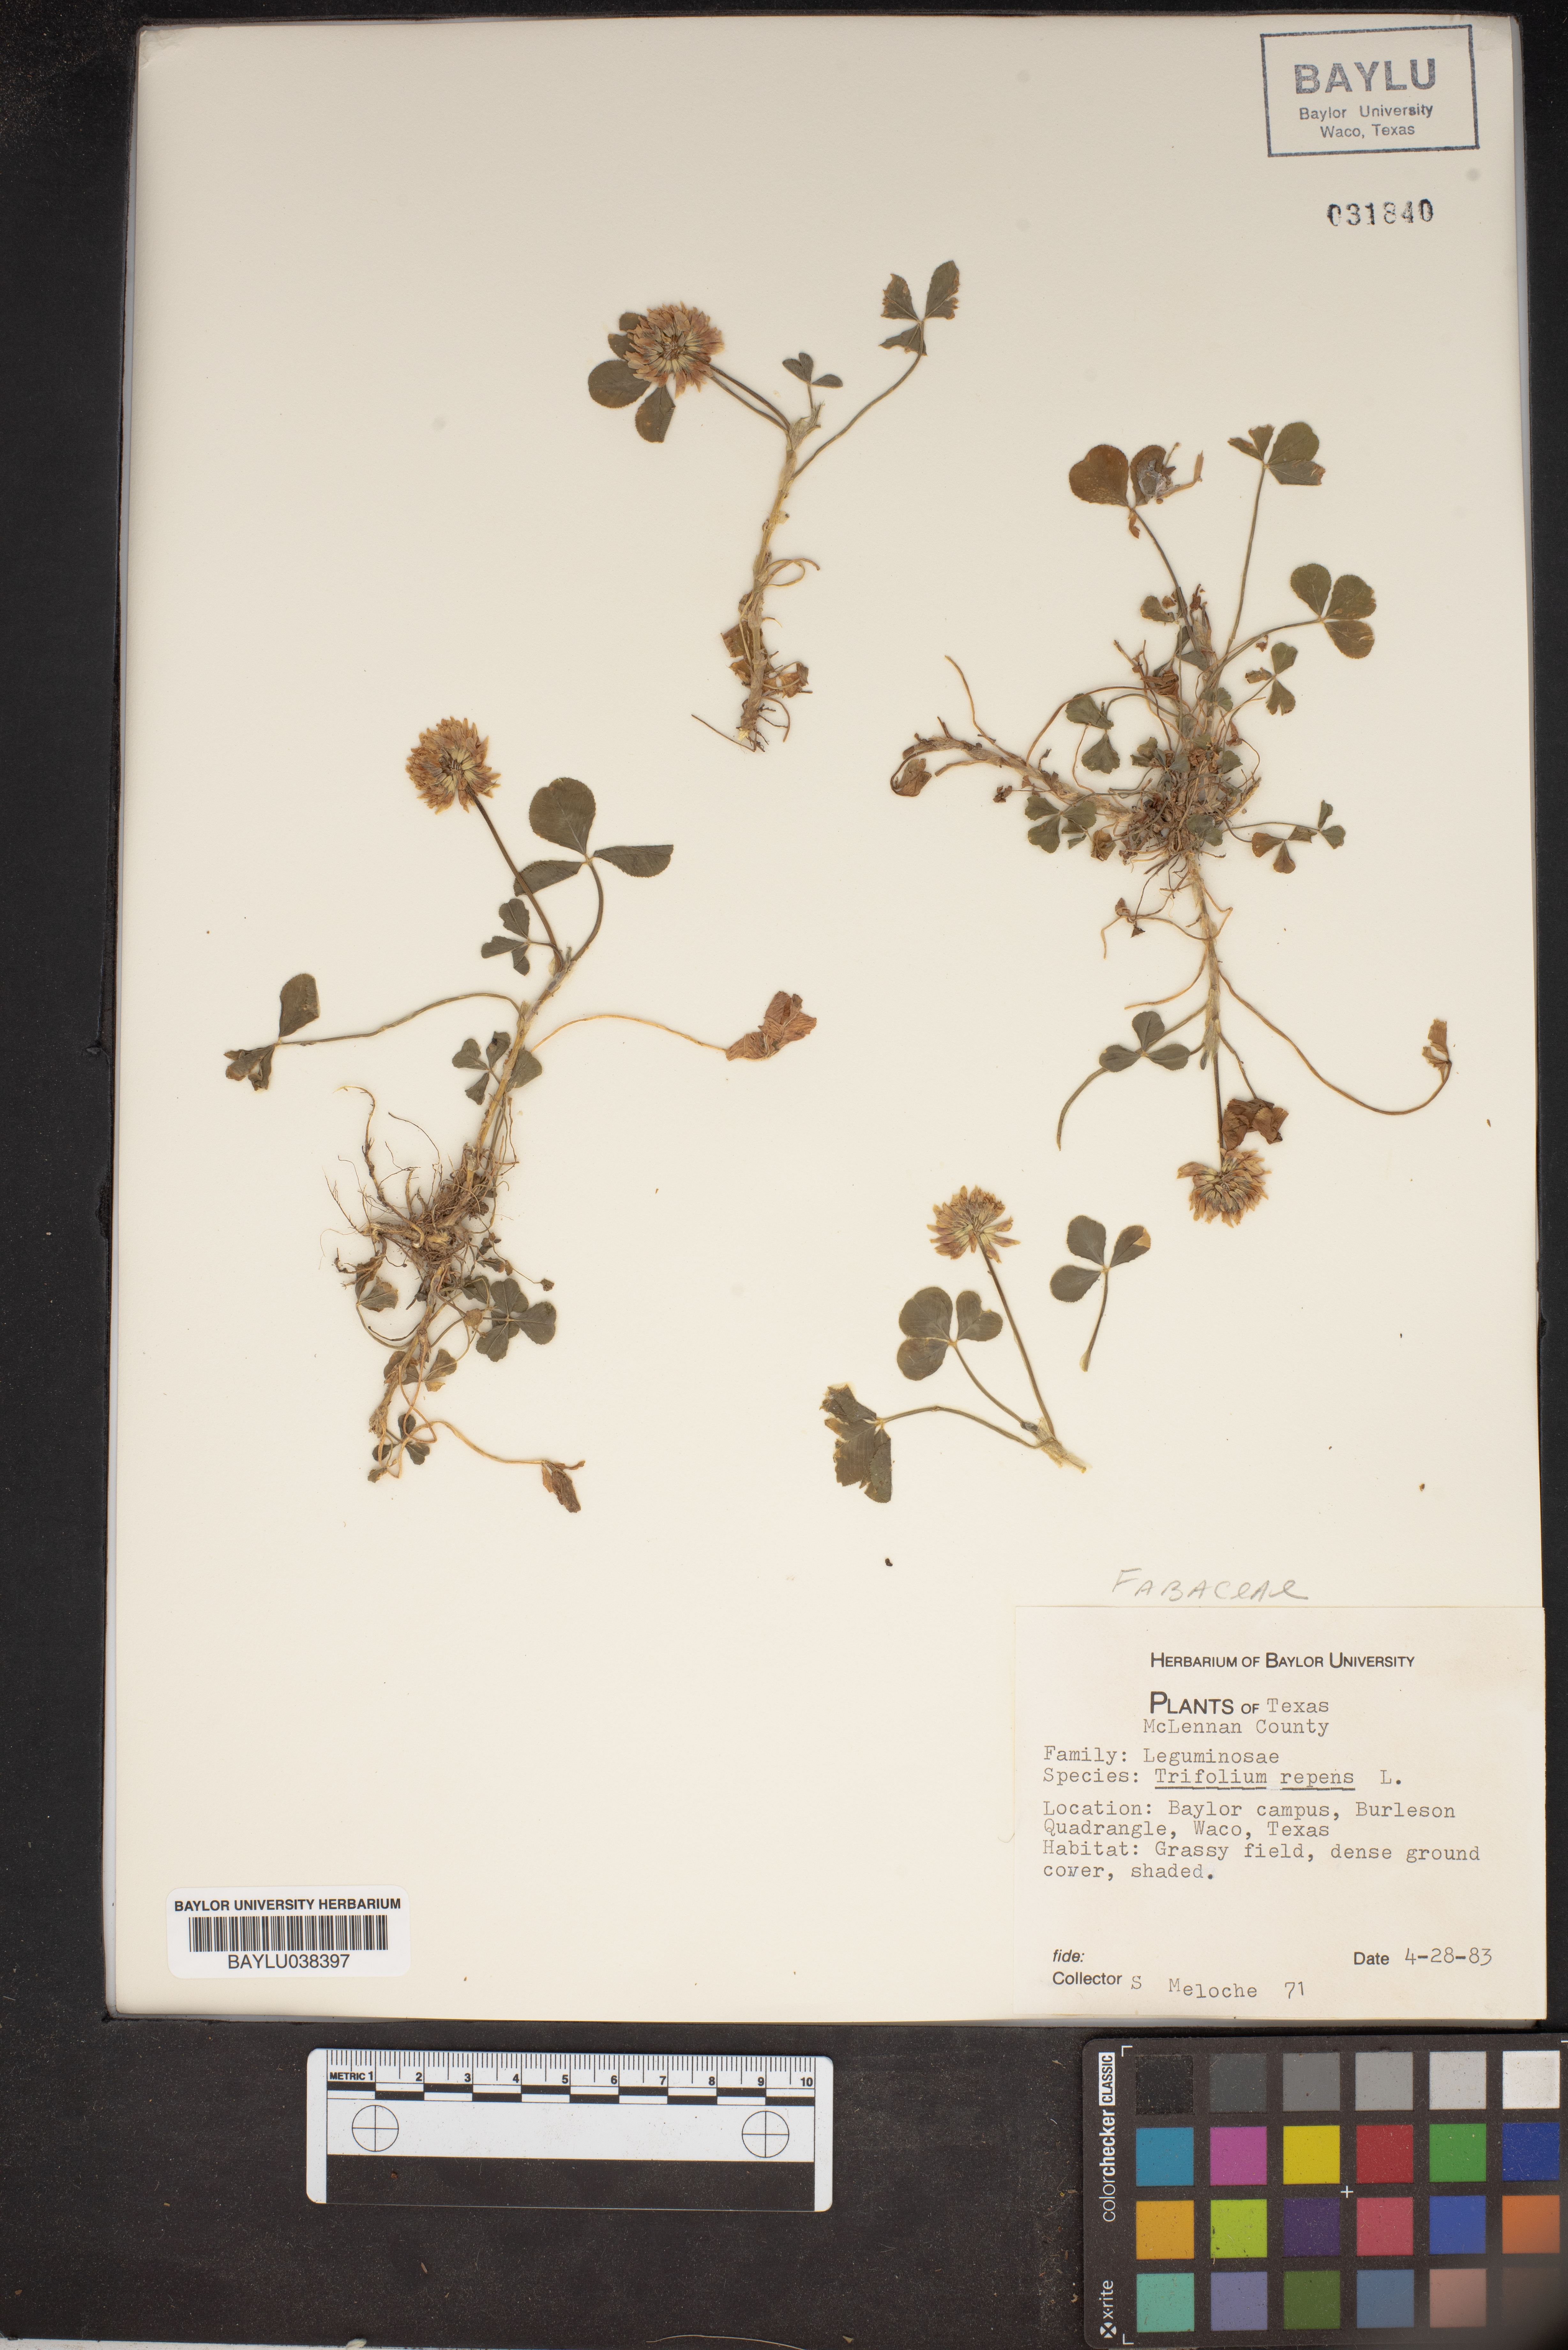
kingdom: Plantae
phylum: Tracheophyta
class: Magnoliopsida
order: Fabales
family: Fabaceae
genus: Trifolium
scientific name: Trifolium repens
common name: White clover
